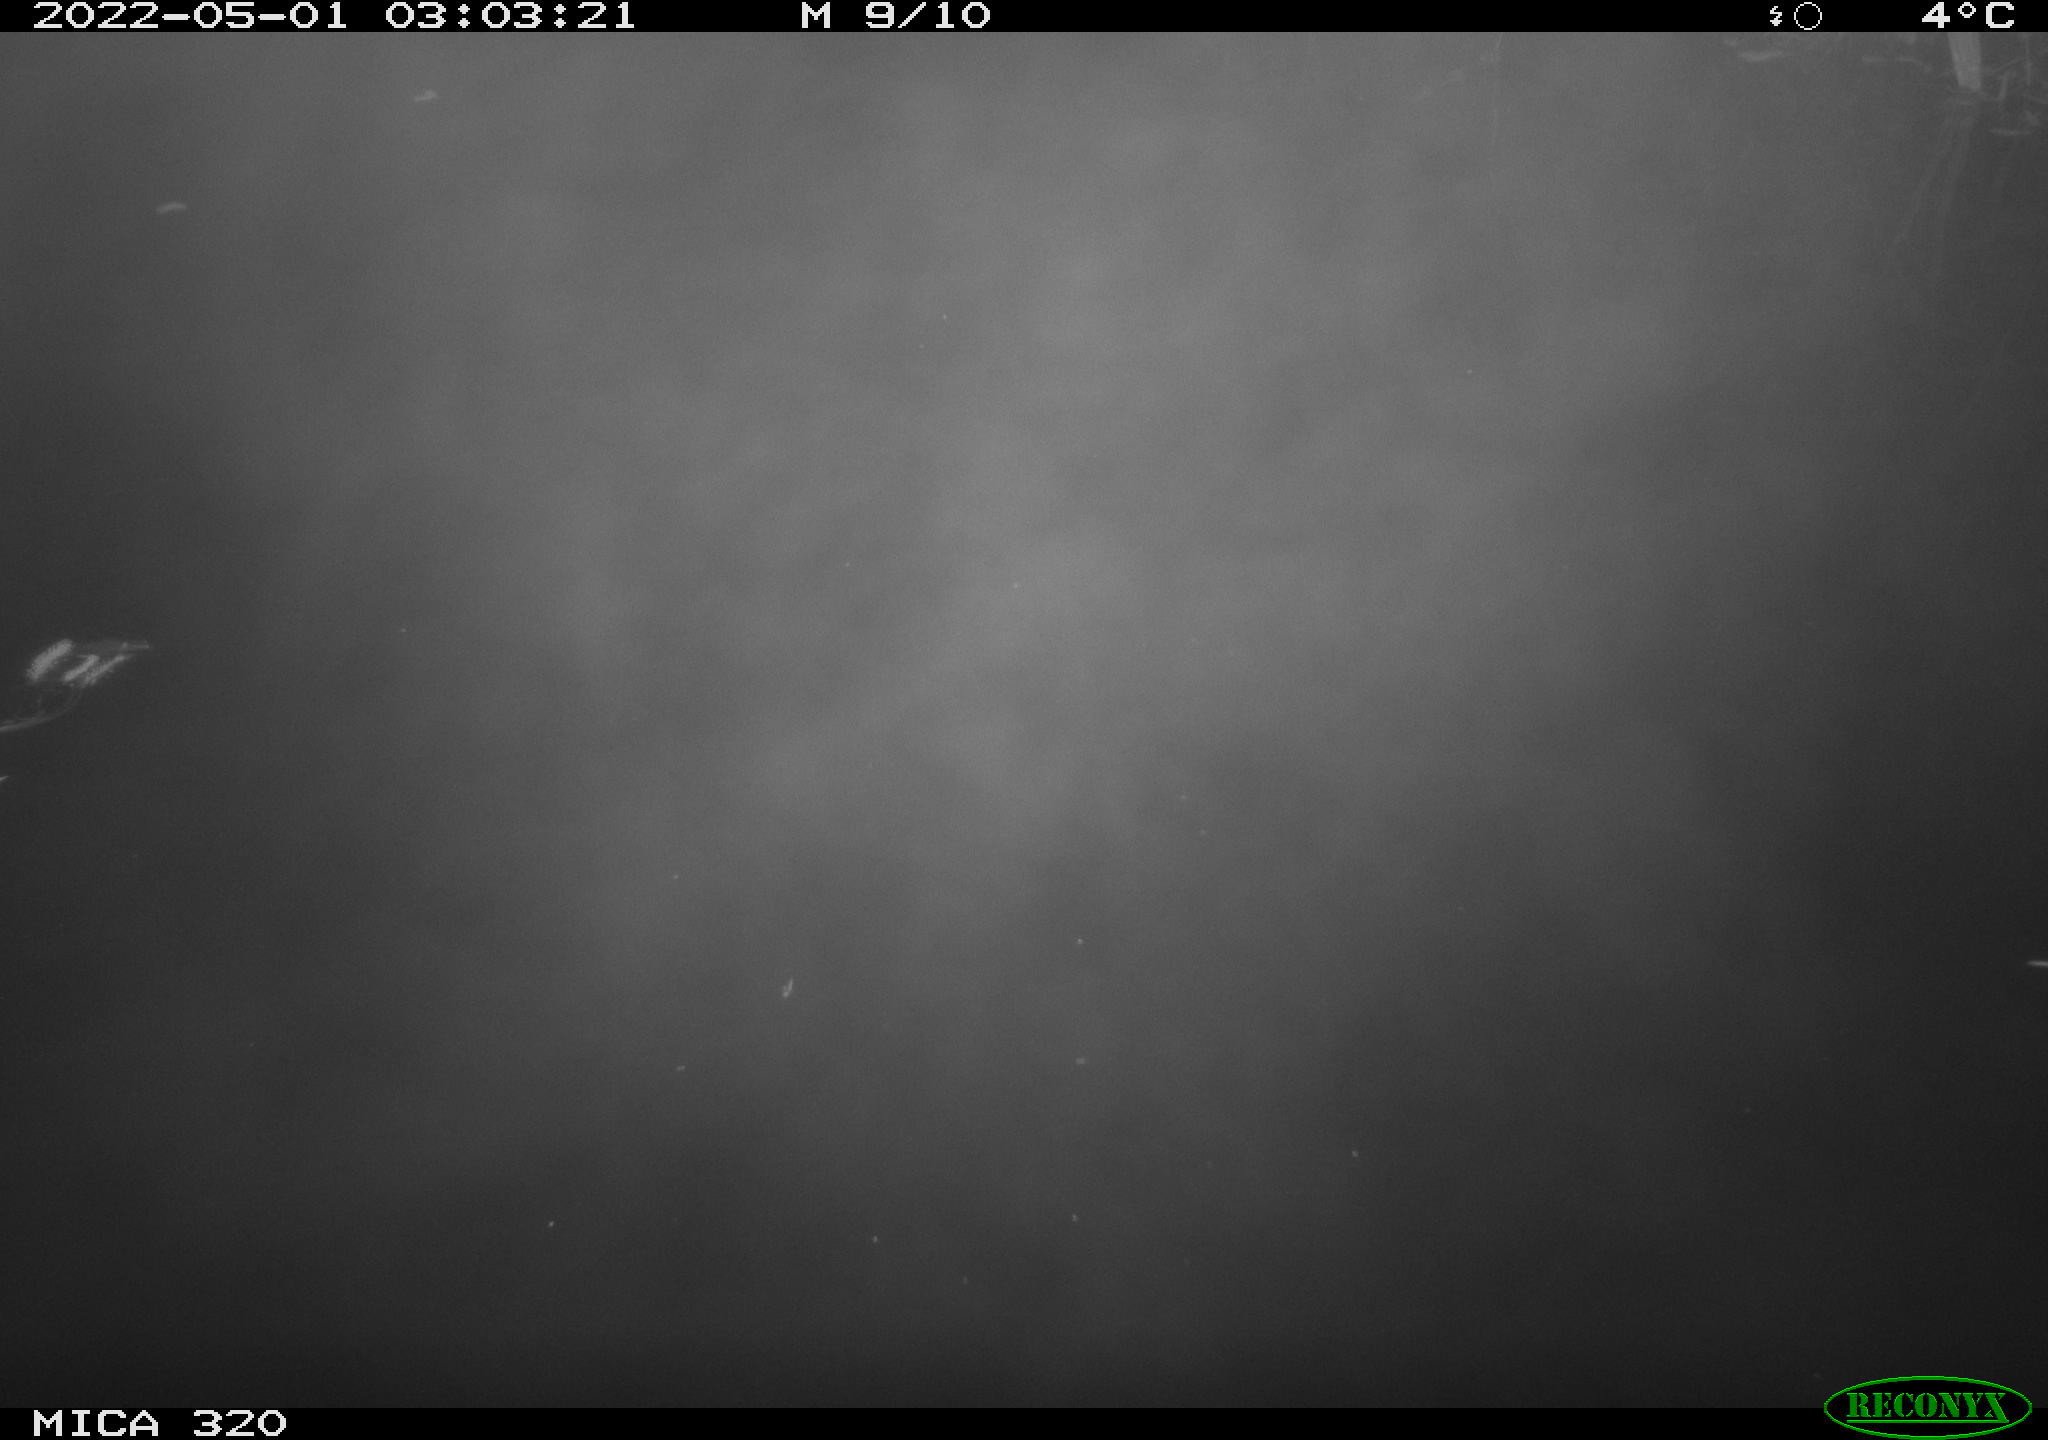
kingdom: Animalia
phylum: Chordata
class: Aves
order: Anseriformes
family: Anatidae
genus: Anas
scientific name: Anas platyrhynchos
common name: Mallard
